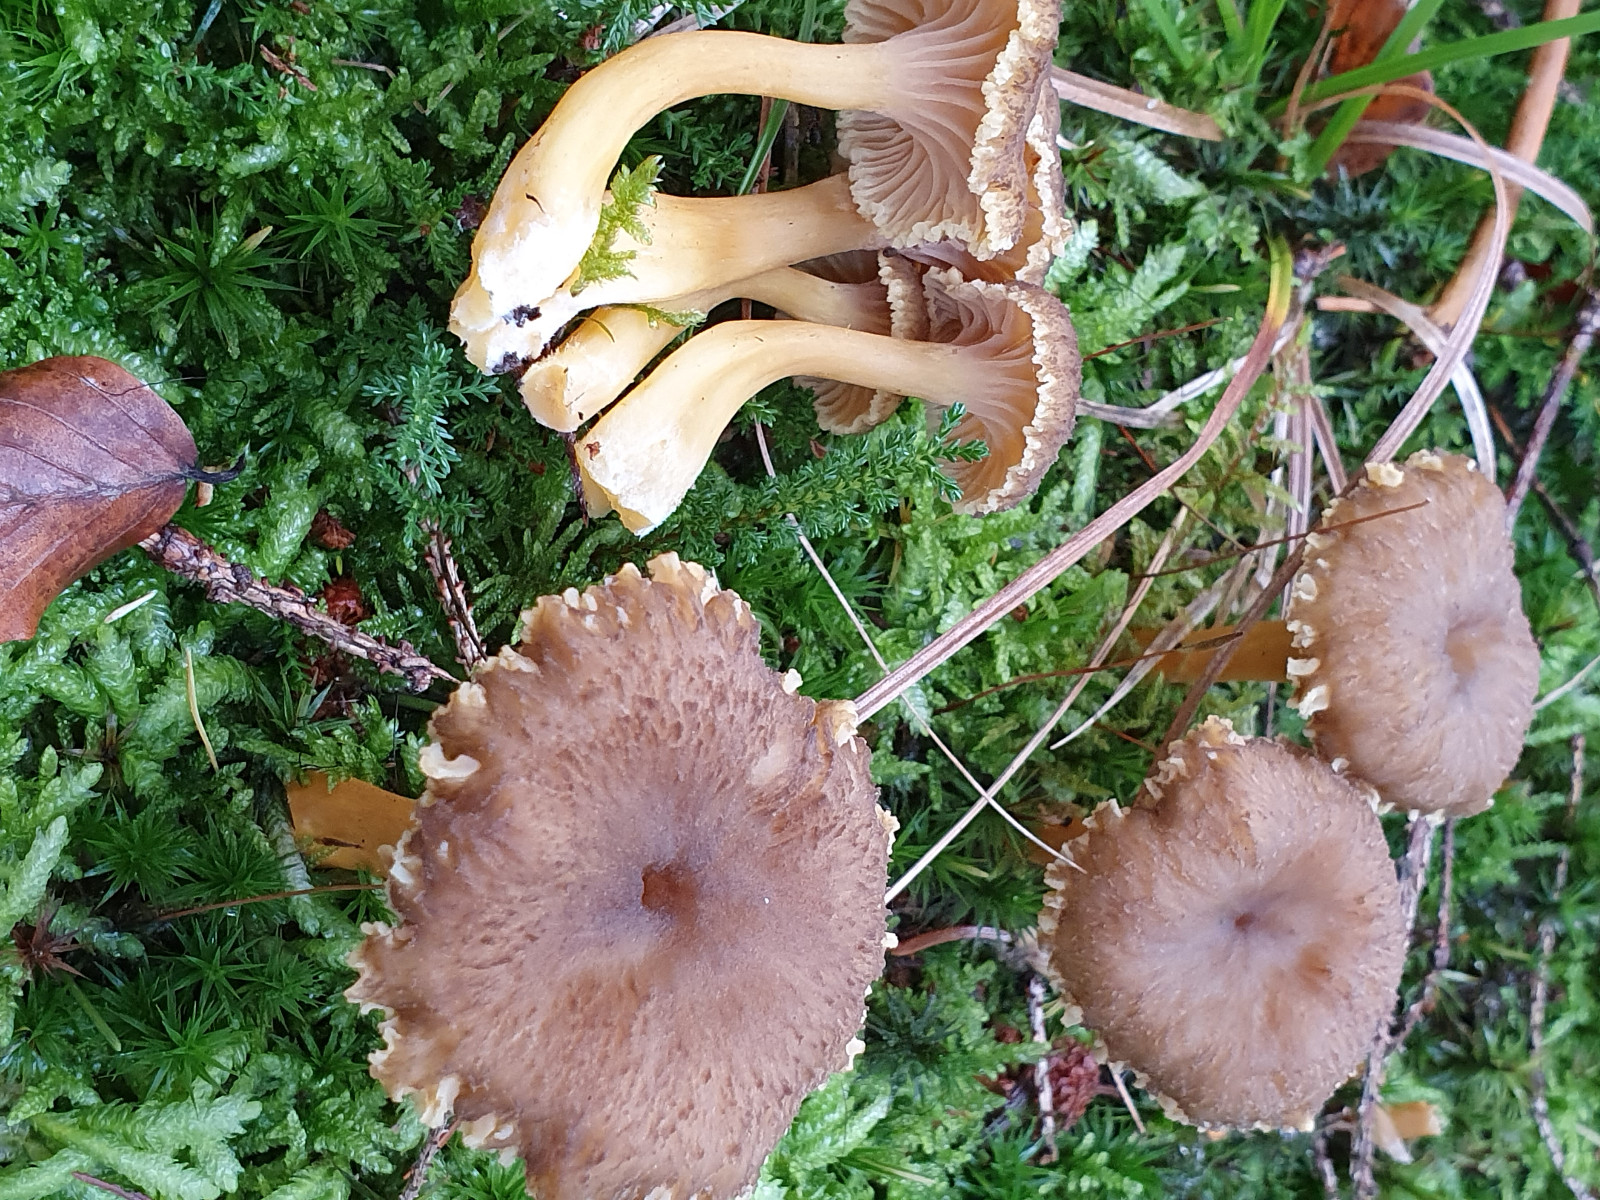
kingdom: Fungi
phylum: Basidiomycota
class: Agaricomycetes
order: Cantharellales
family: Hydnaceae
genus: Craterellus
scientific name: Craterellus tubaeformis
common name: tragt-kantarel
